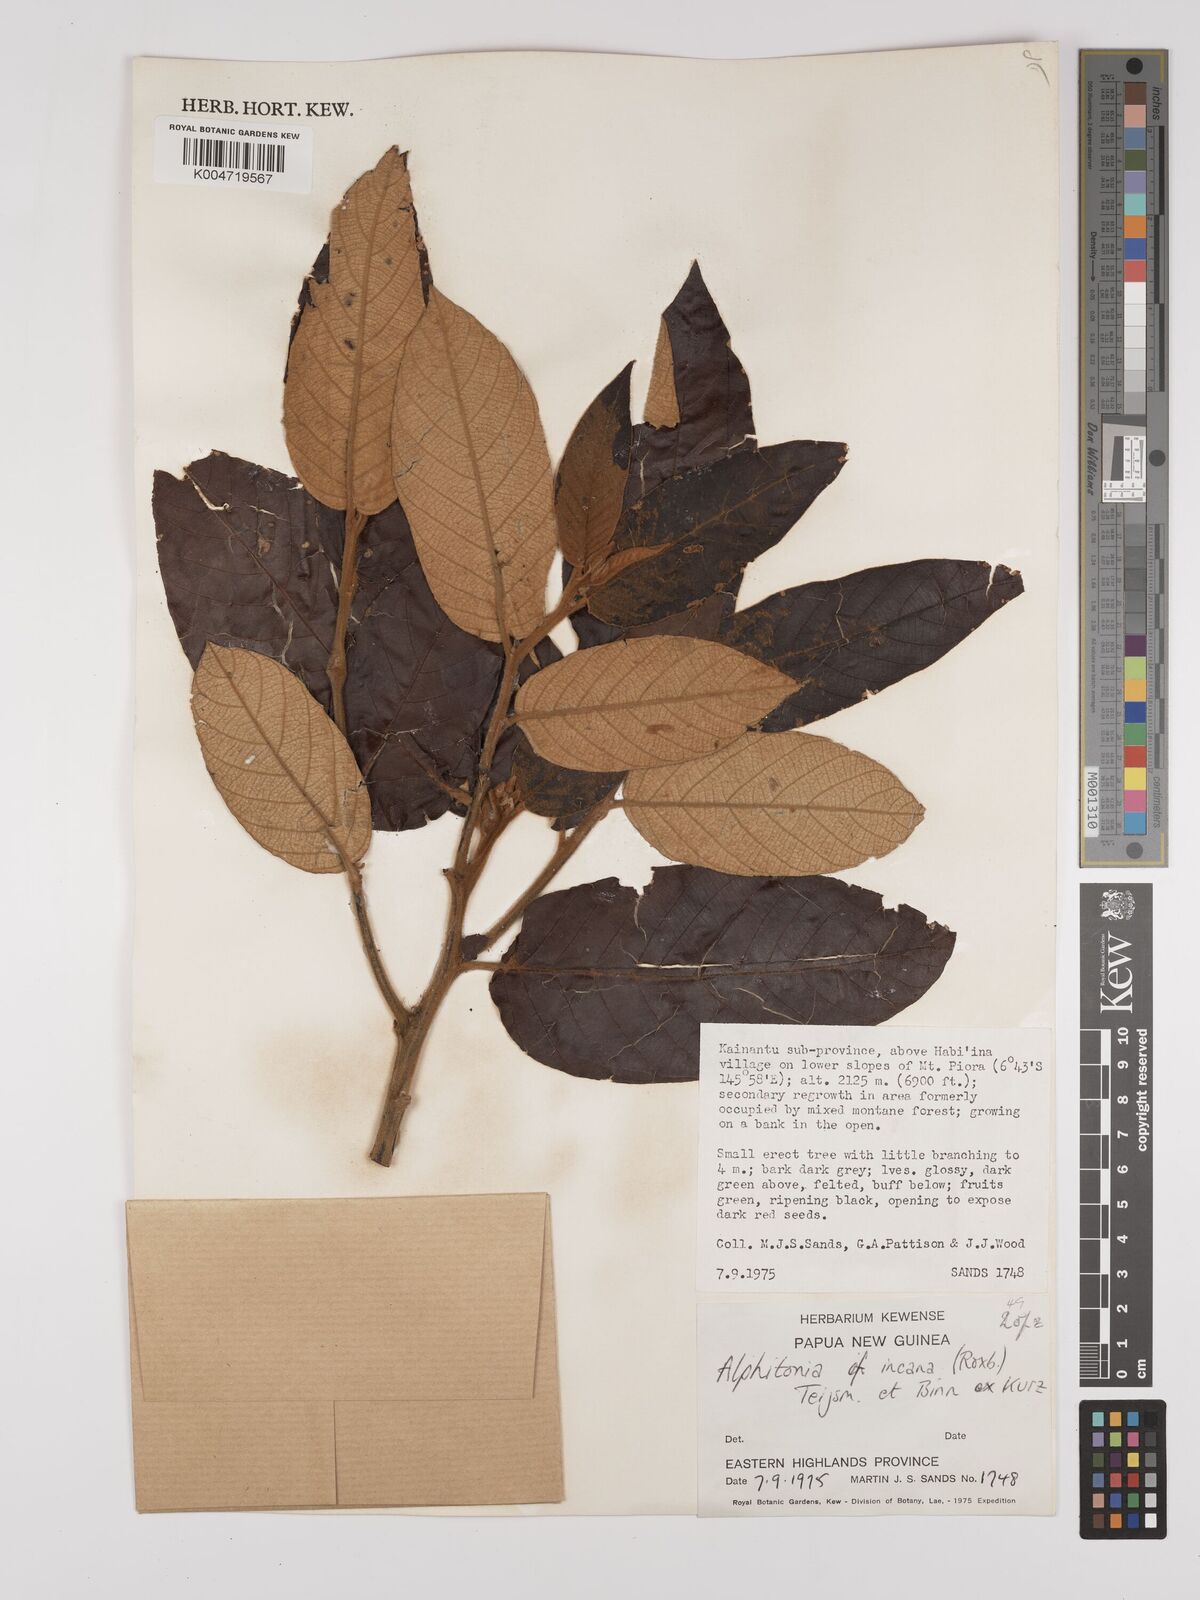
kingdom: Plantae
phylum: Tracheophyta
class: Magnoliopsida
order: Rosales
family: Rhamnaceae
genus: Alphitonia
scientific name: Alphitonia incana
